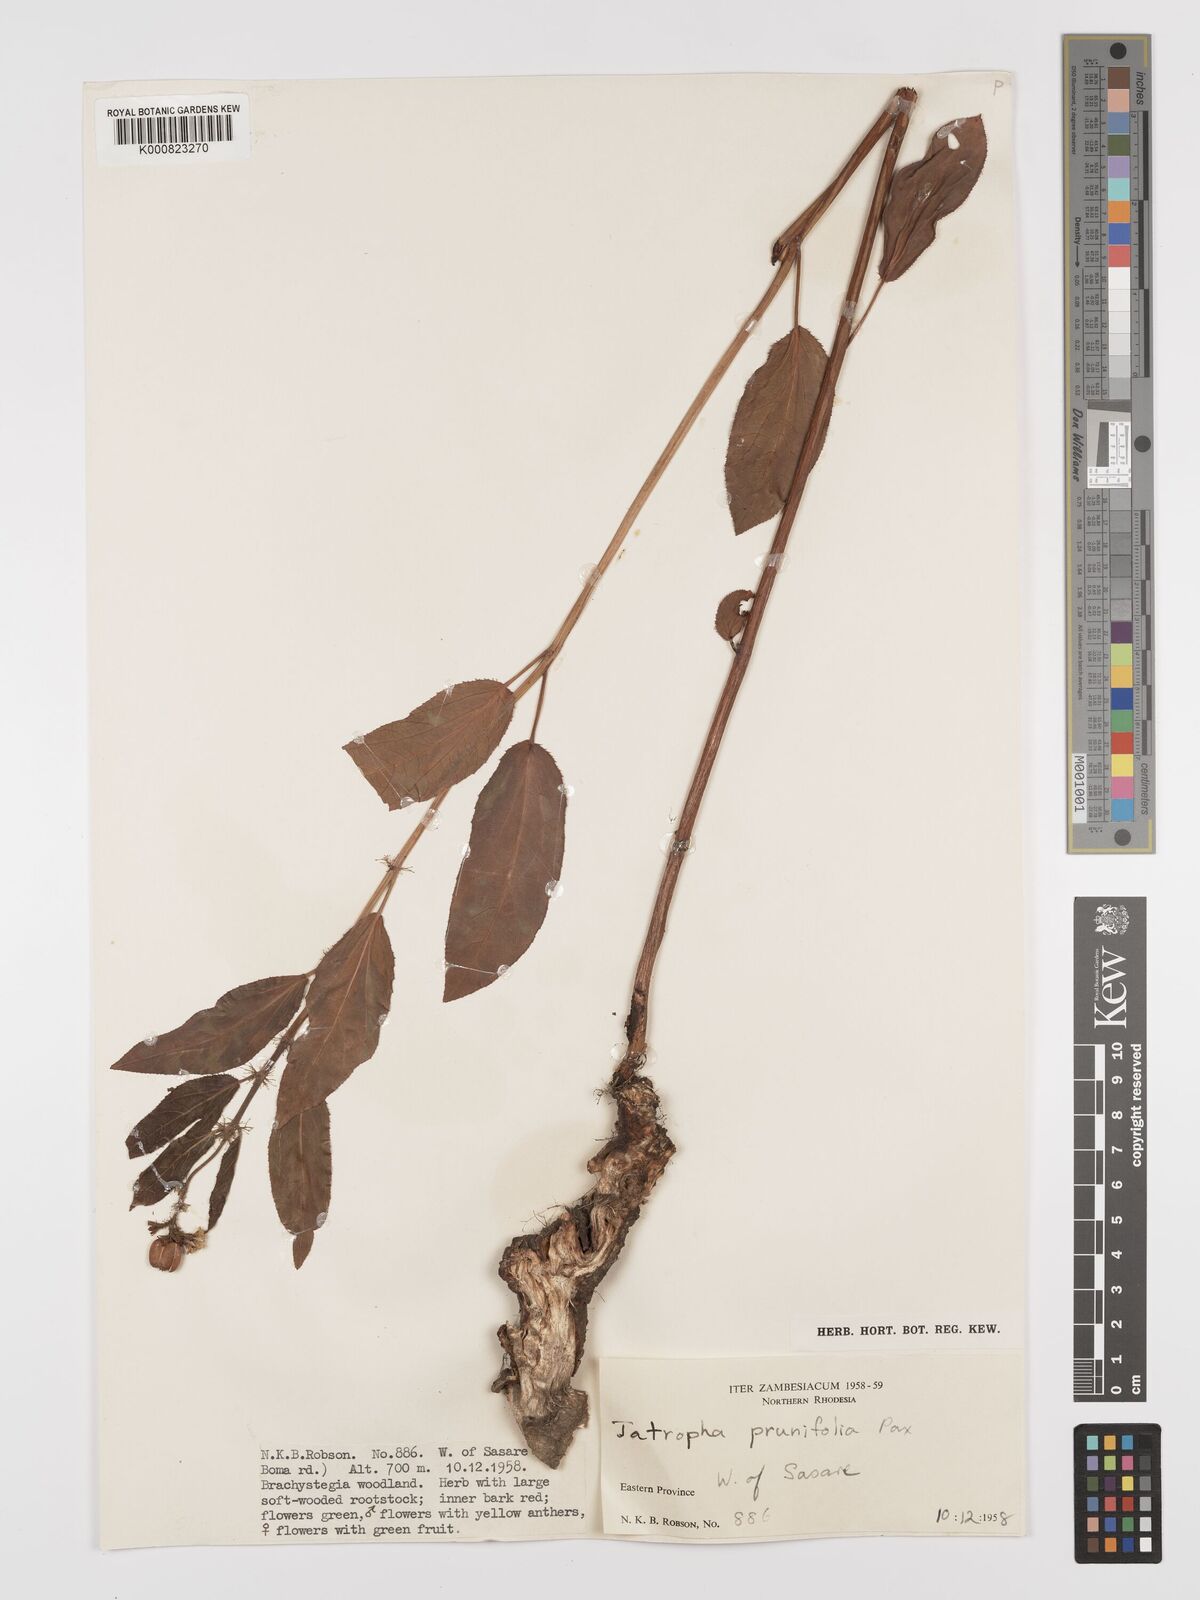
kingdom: Plantae
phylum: Tracheophyta
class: Magnoliopsida
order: Malpighiales
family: Euphorbiaceae
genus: Jatropha
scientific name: Jatropha
